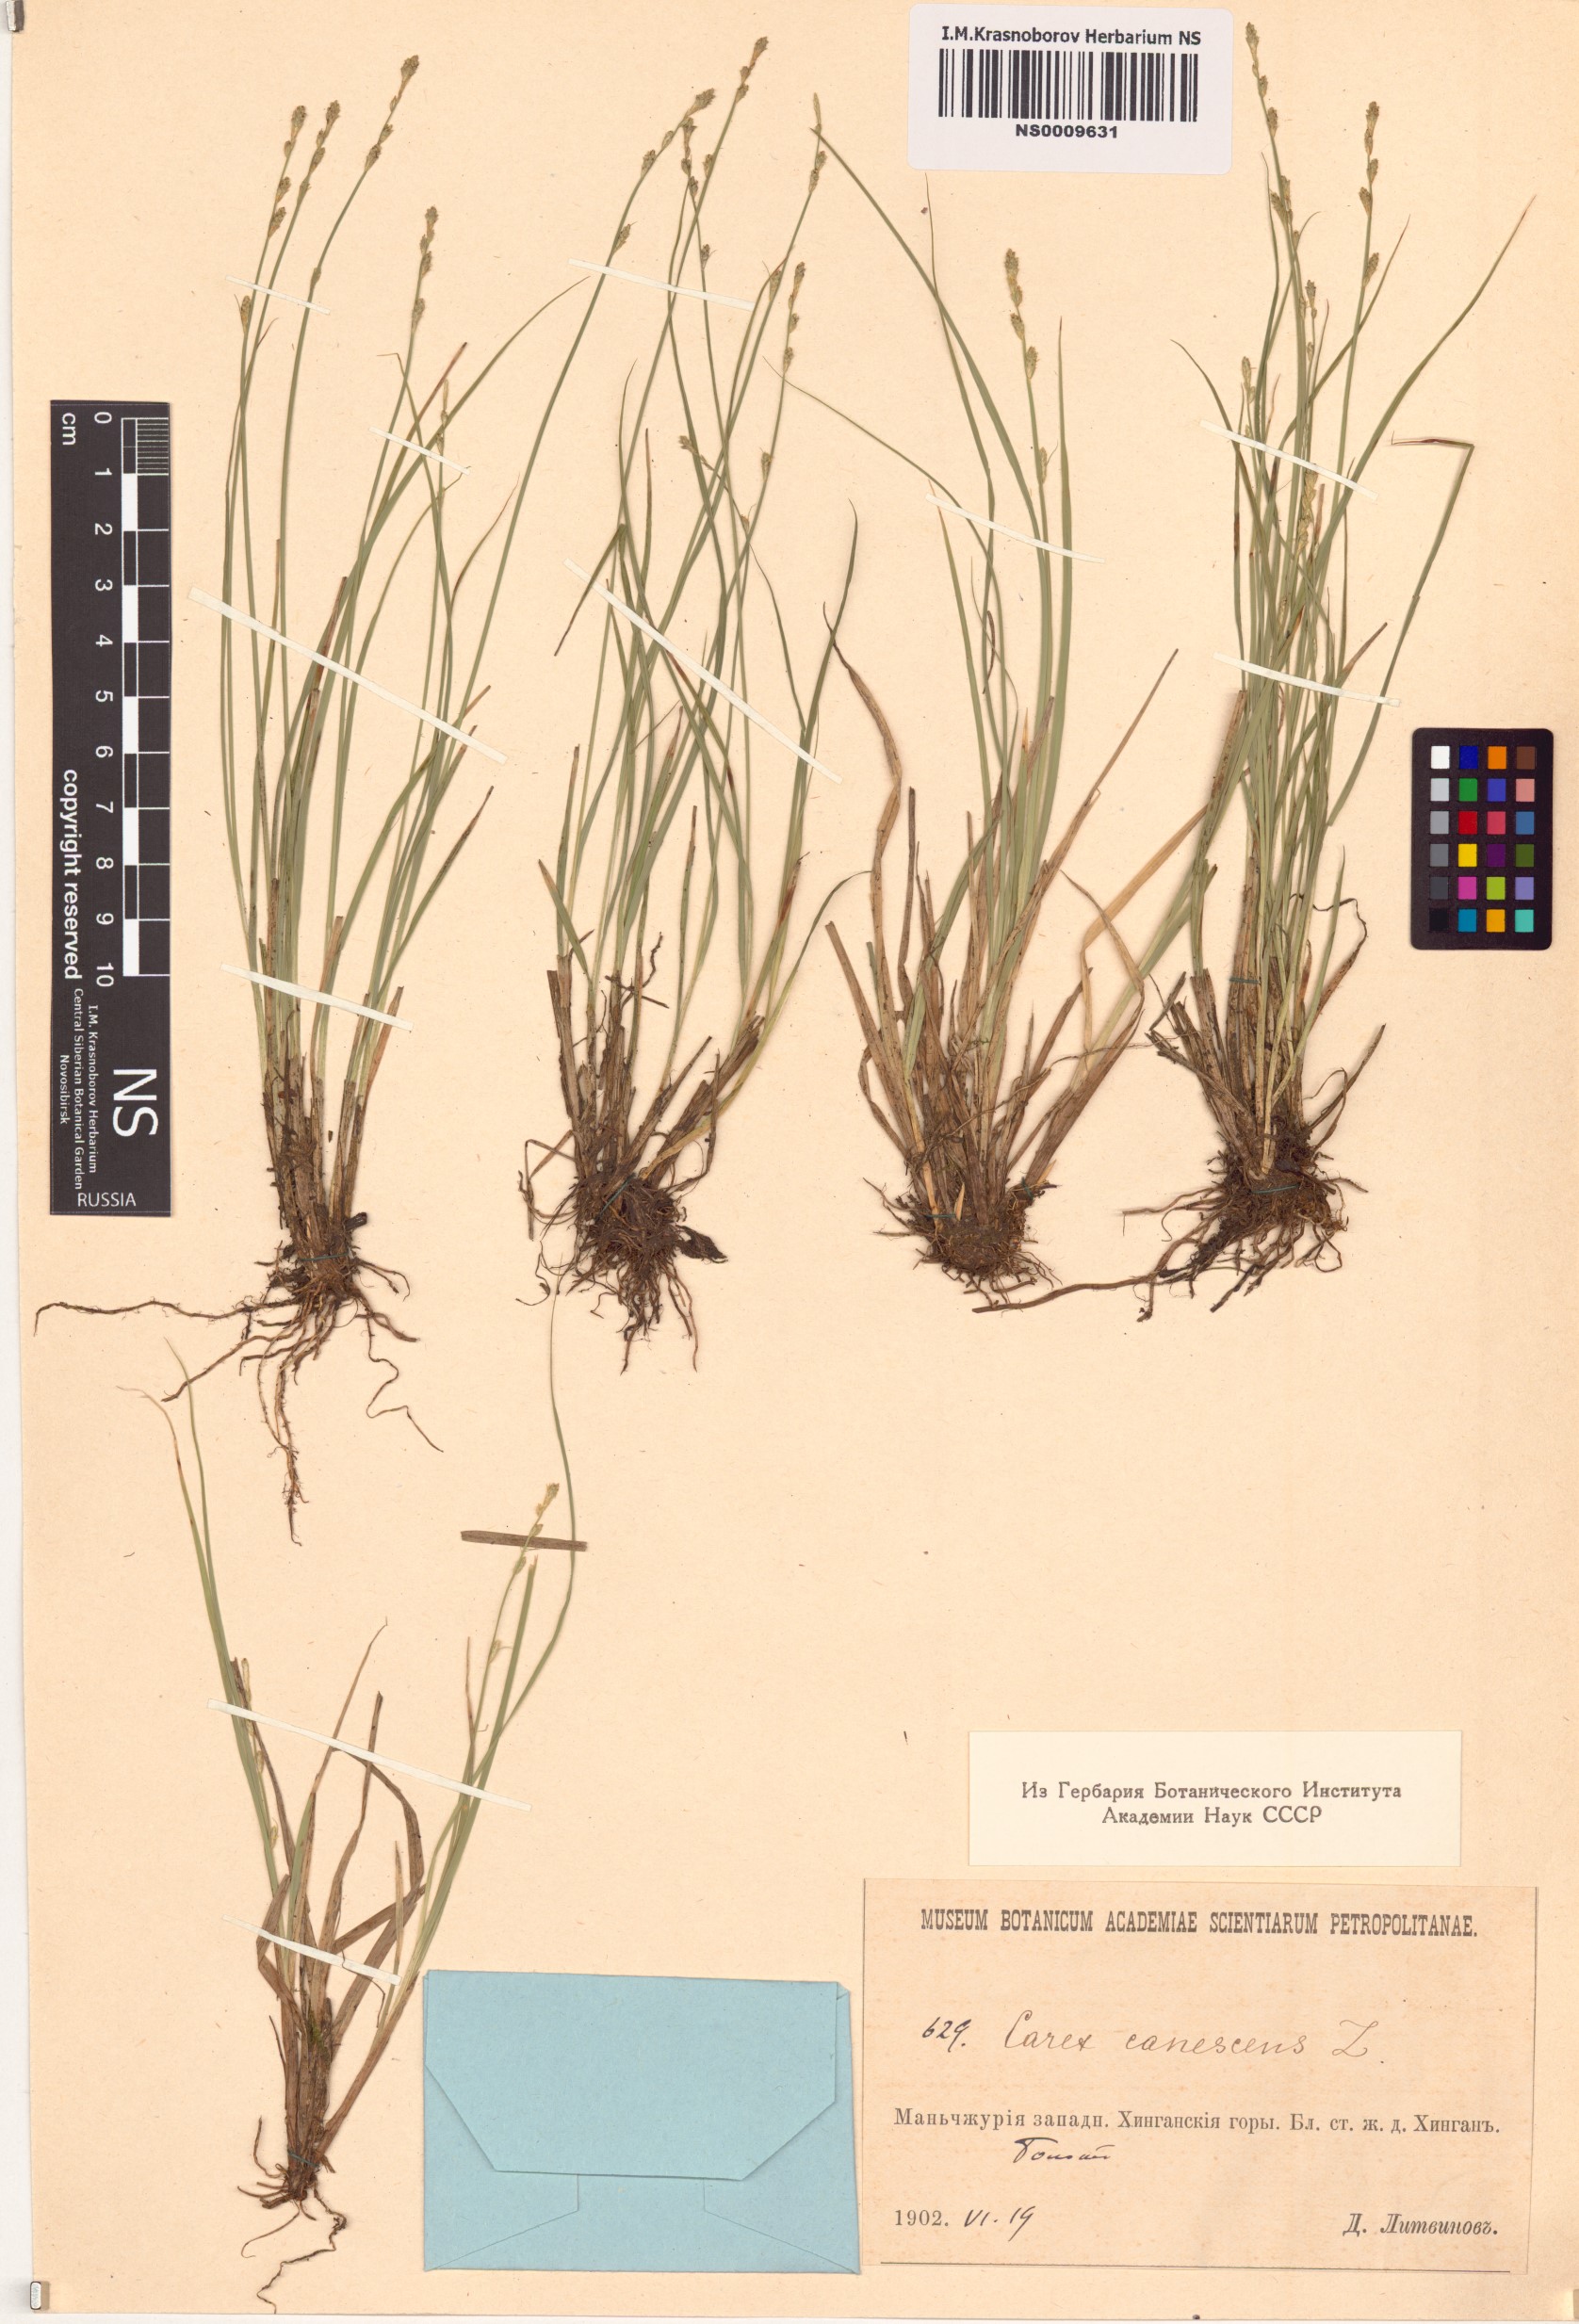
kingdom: Plantae
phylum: Tracheophyta
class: Liliopsida
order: Poales
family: Cyperaceae
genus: Carex
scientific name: Carex canescens
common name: White sedge
